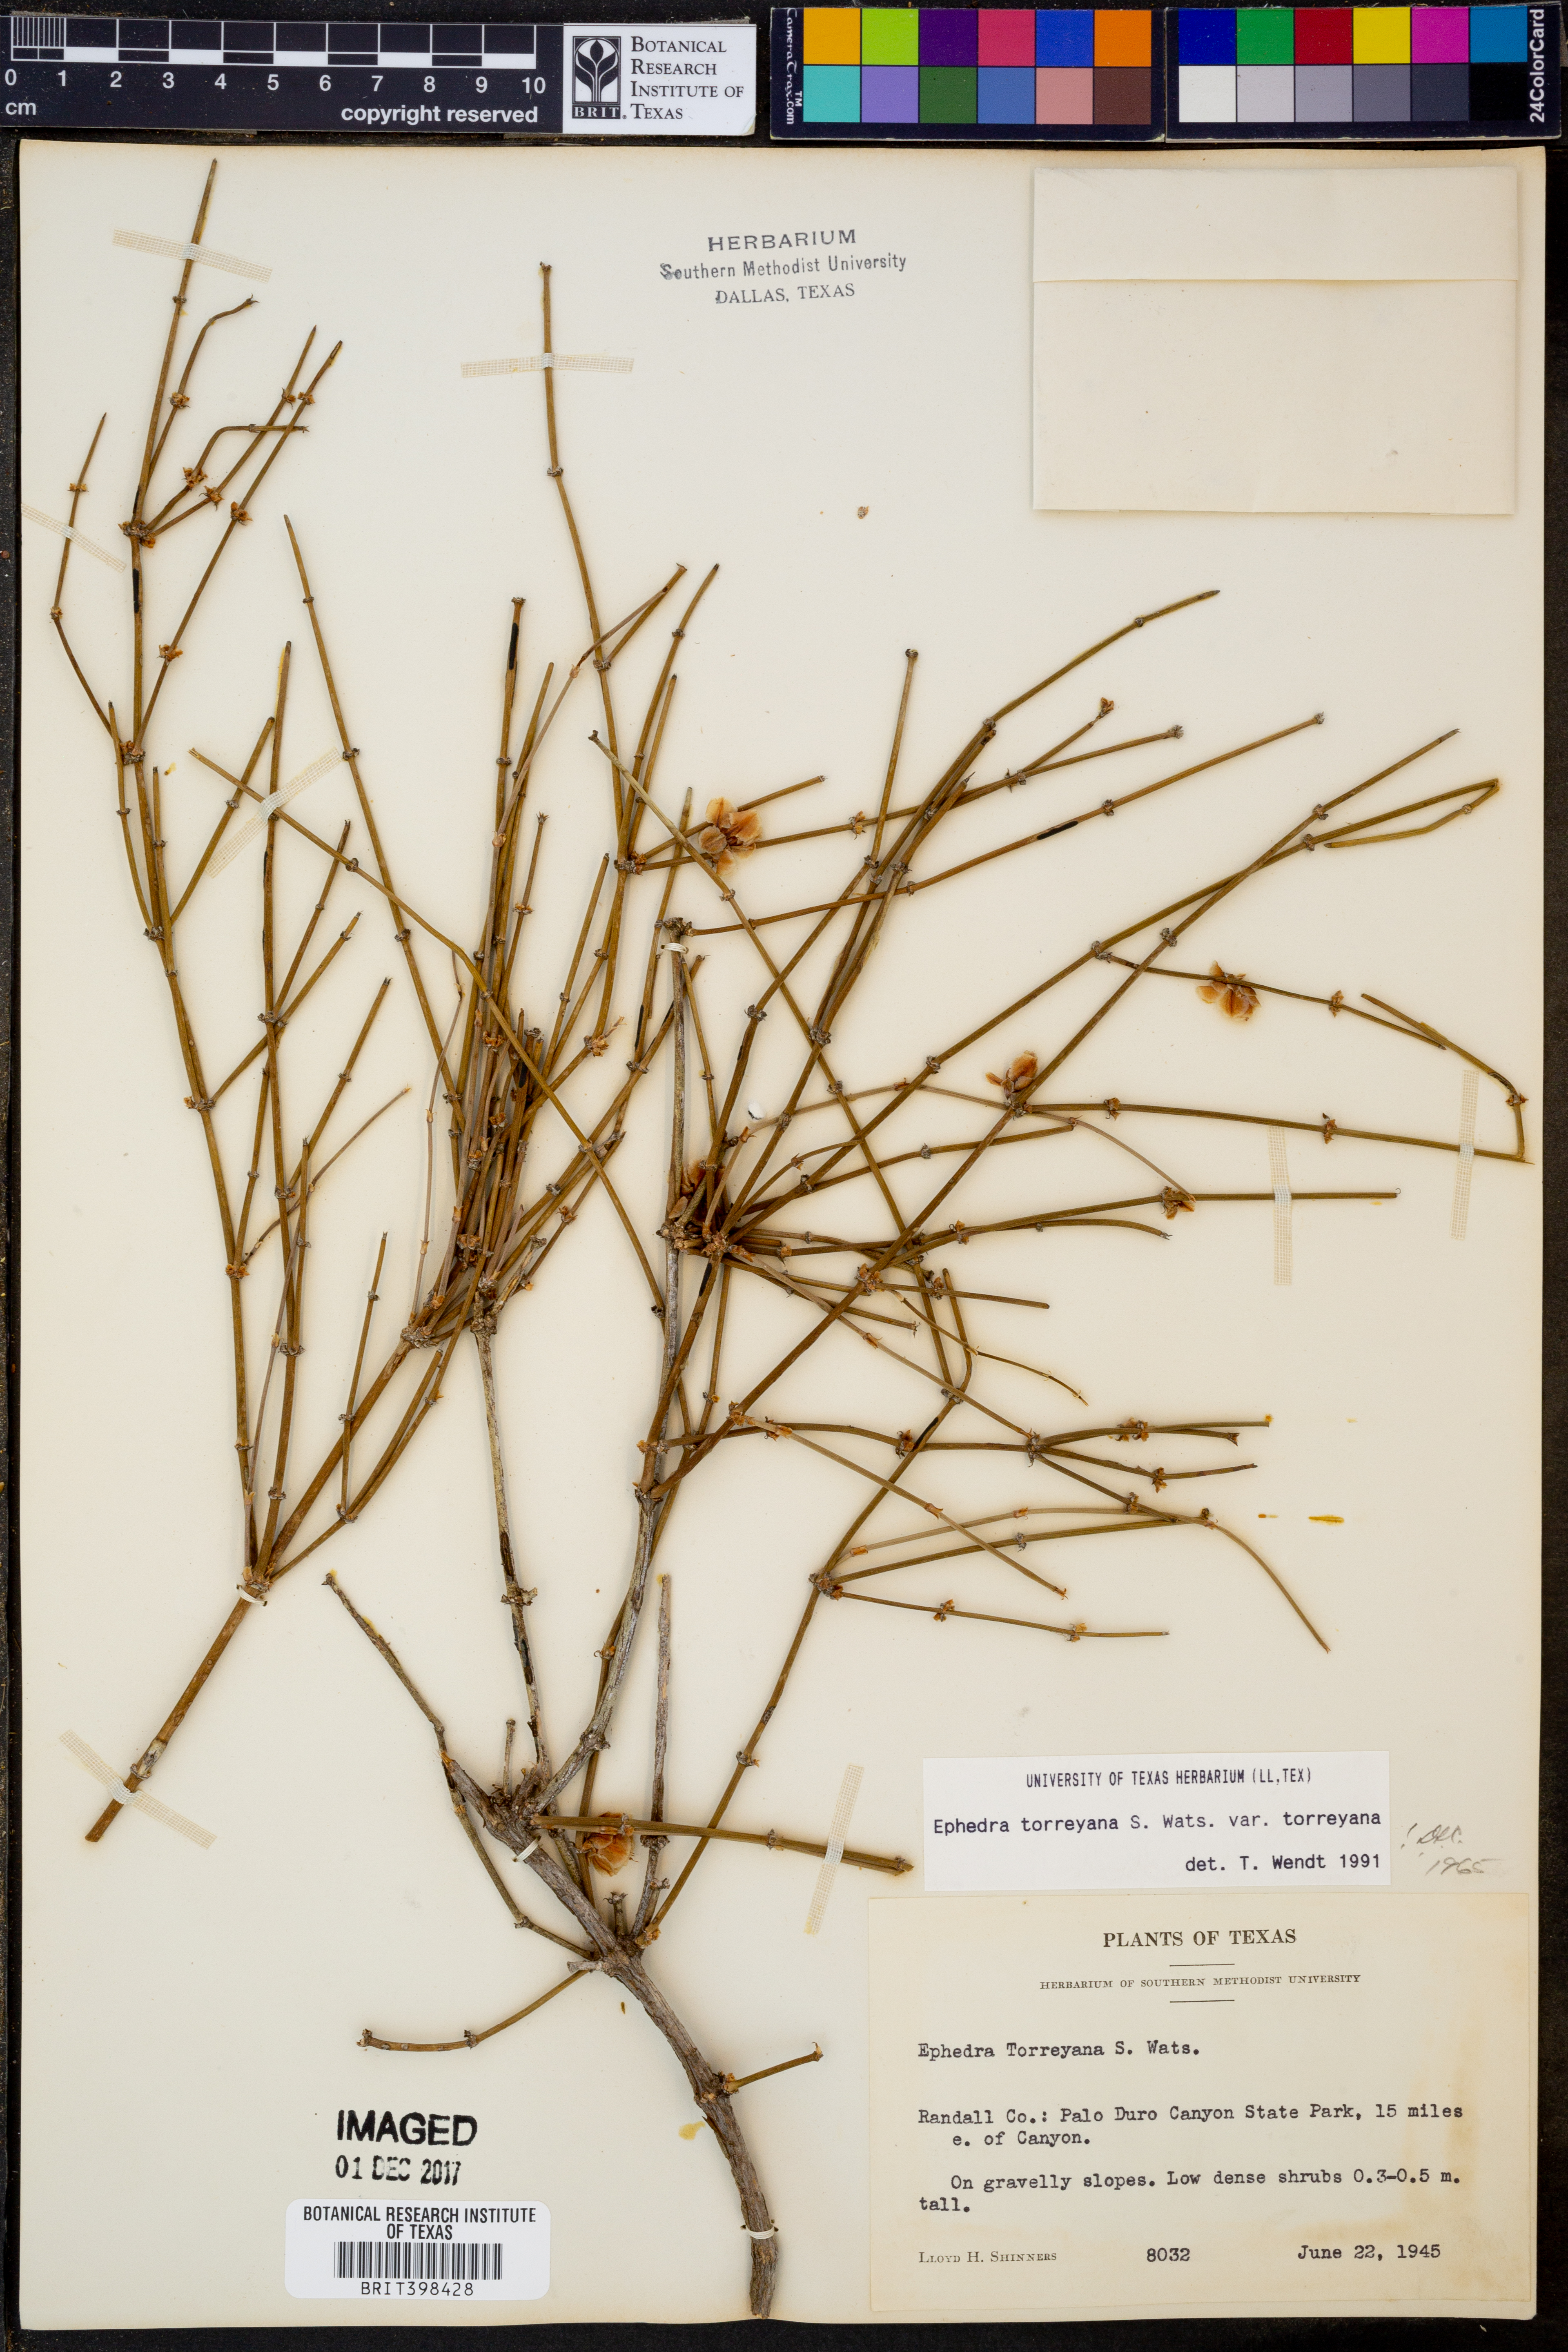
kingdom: Plantae
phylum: Tracheophyta
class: Gnetopsida
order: Ephedrales
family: Ephedraceae
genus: Ephedra
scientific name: Ephedra torreyana
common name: Torrey ephedra
